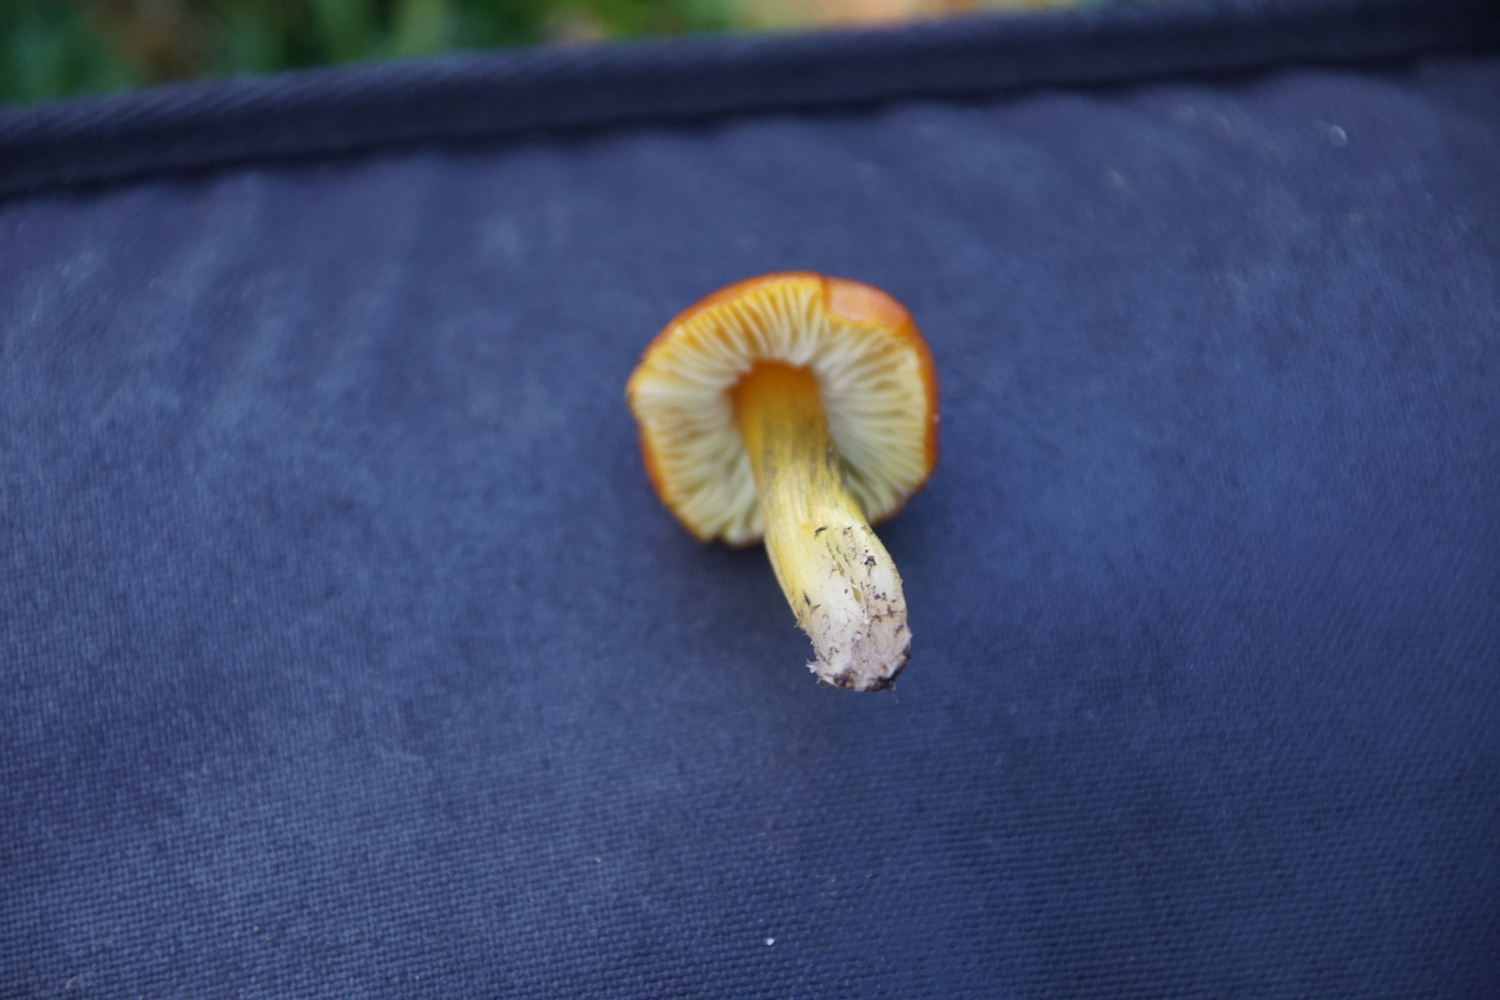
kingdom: Fungi
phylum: Basidiomycota
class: Agaricomycetes
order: Agaricales
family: Hygrophoraceae
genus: Hygrocybe
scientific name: Hygrocybe conica
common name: kegle-vokshat
